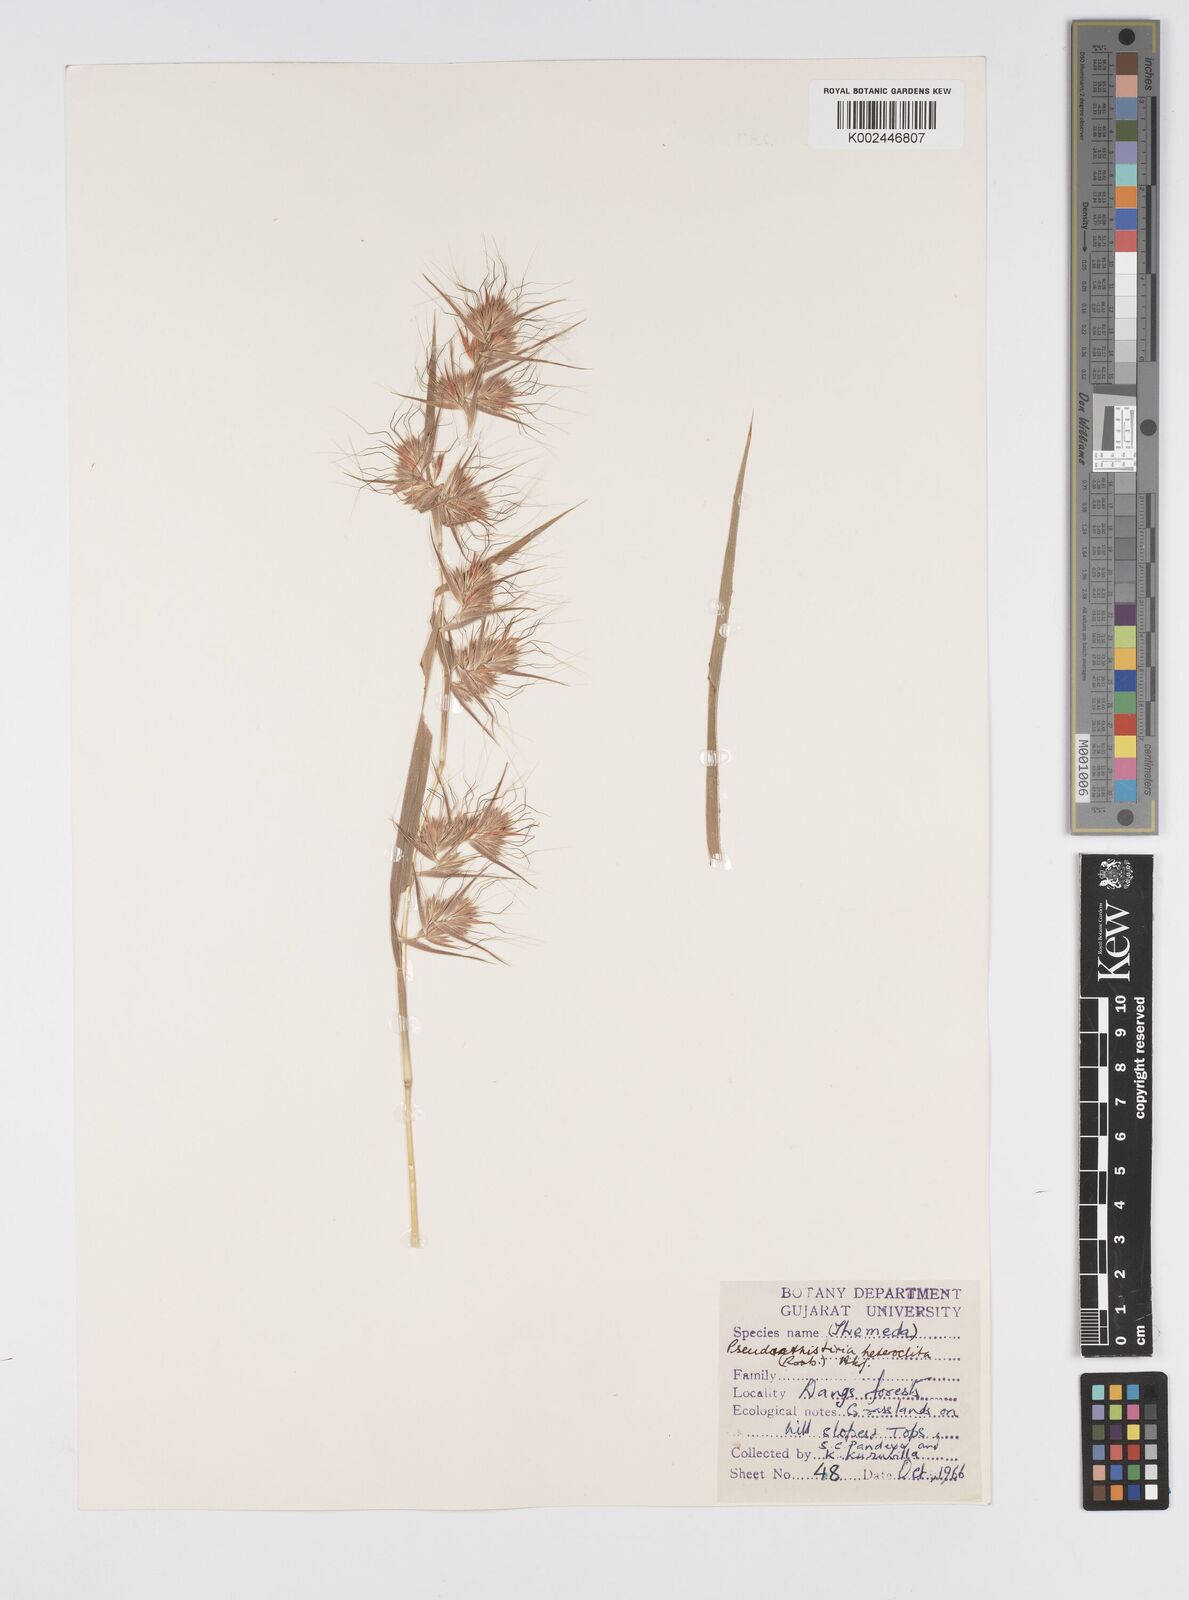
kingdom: Plantae
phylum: Tracheophyta
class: Liliopsida
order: Poales
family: Poaceae
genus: Pseudanthistiria
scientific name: Pseudanthistiria heteroclita
